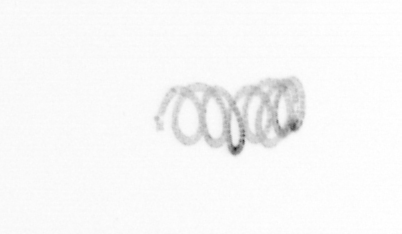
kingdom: Chromista
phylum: Ochrophyta
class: Bacillariophyceae
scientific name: Bacillariophyceae
